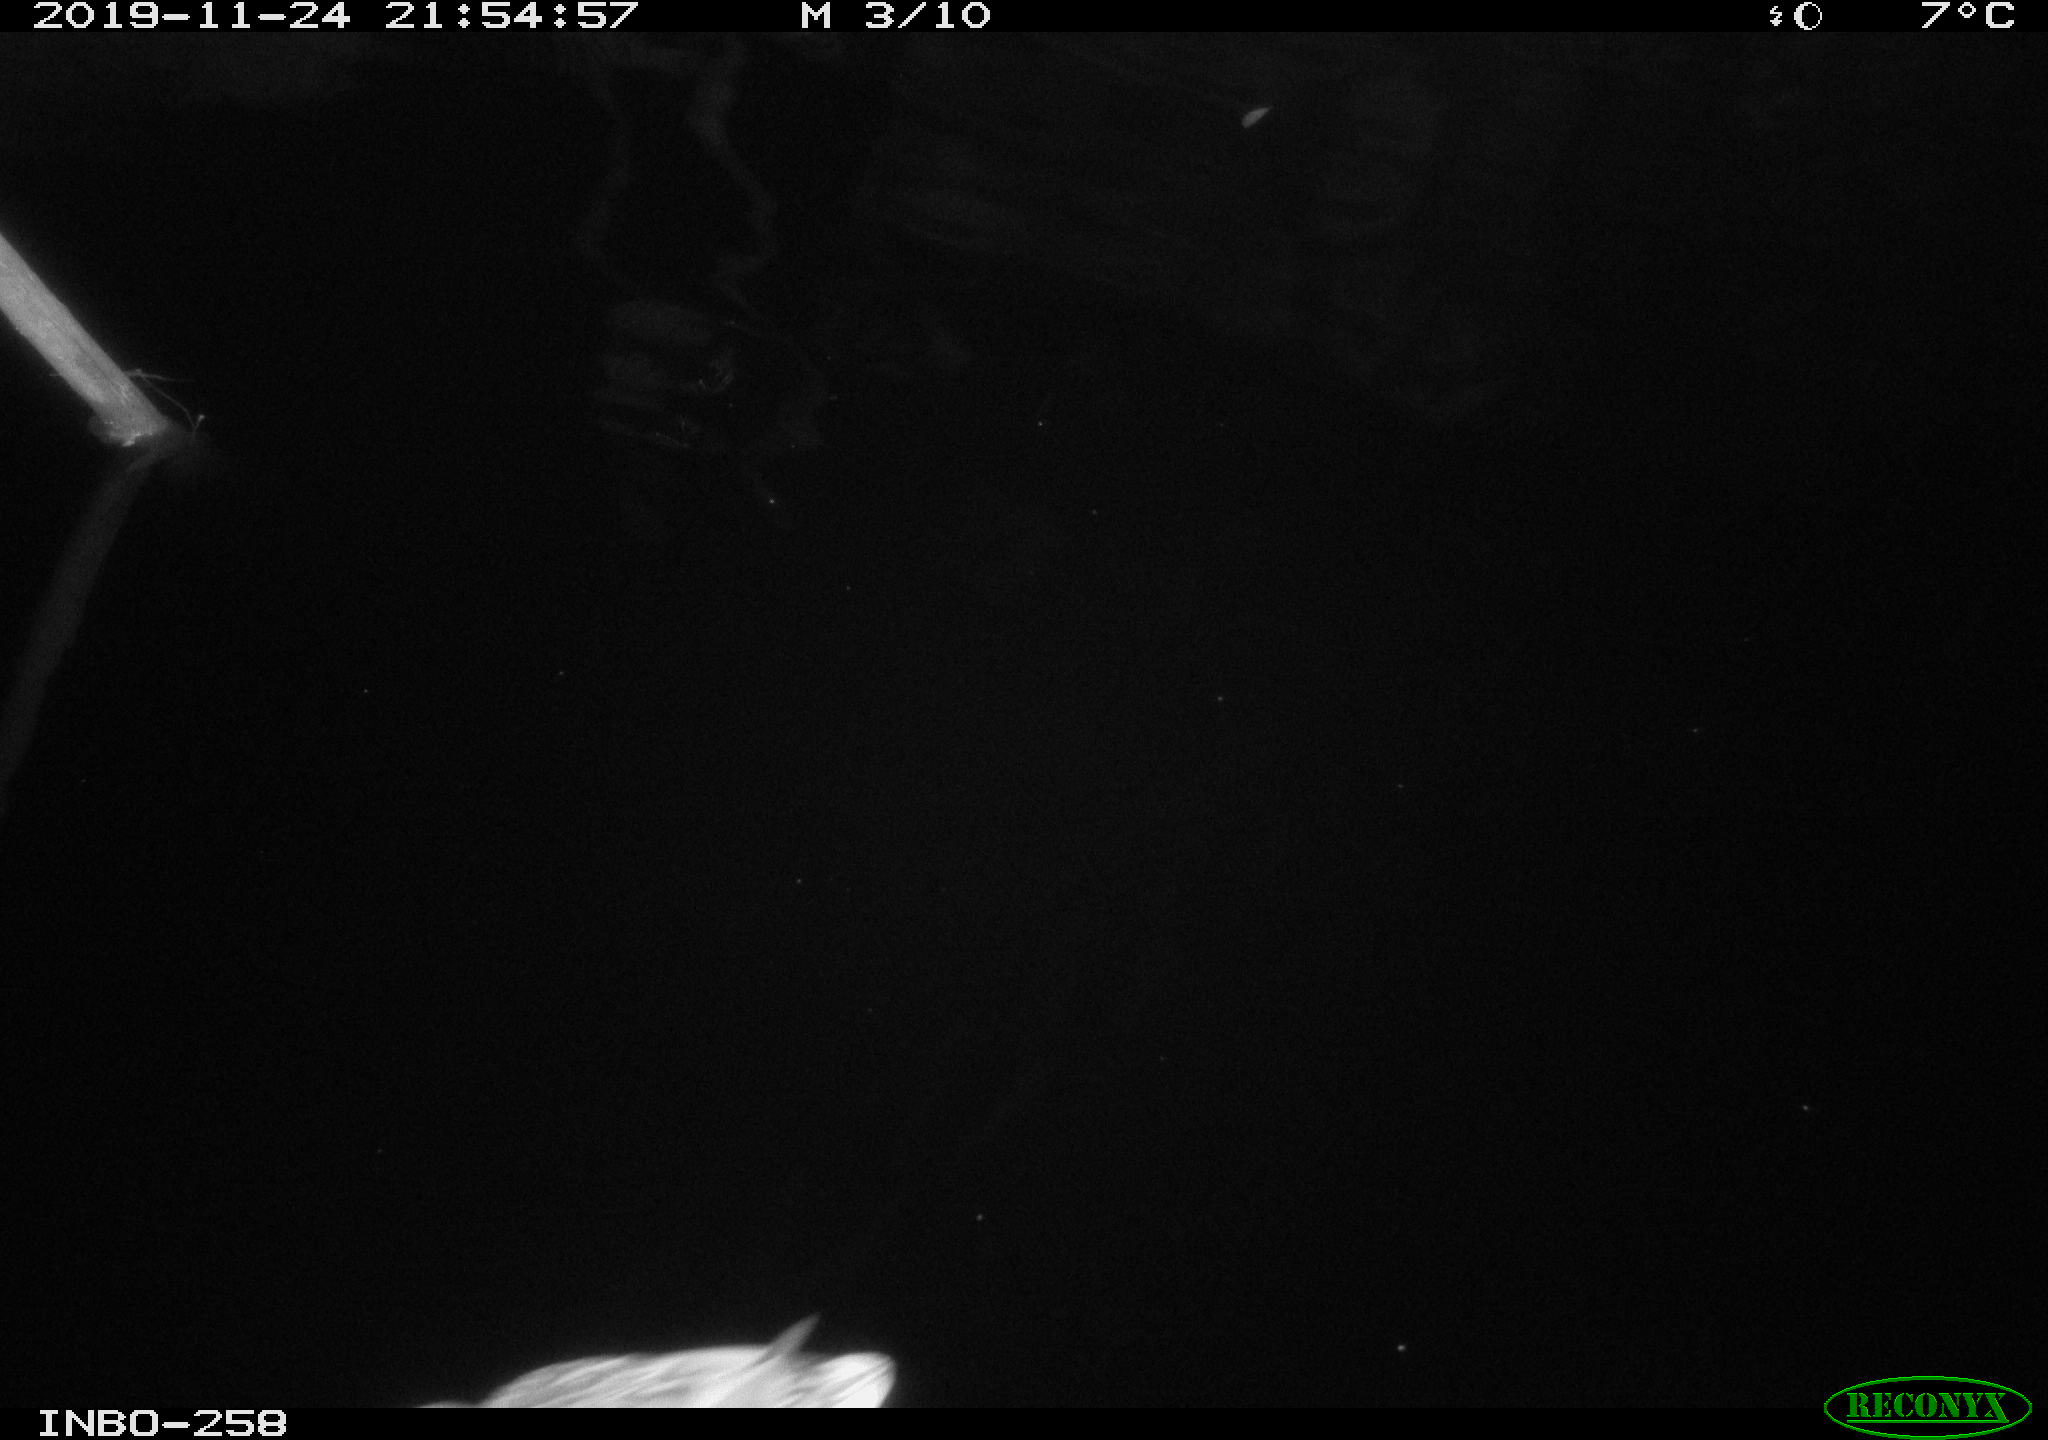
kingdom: Animalia
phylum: Chordata
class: Aves
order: Anseriformes
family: Anatidae
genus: Anas
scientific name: Anas platyrhynchos
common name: Mallard
